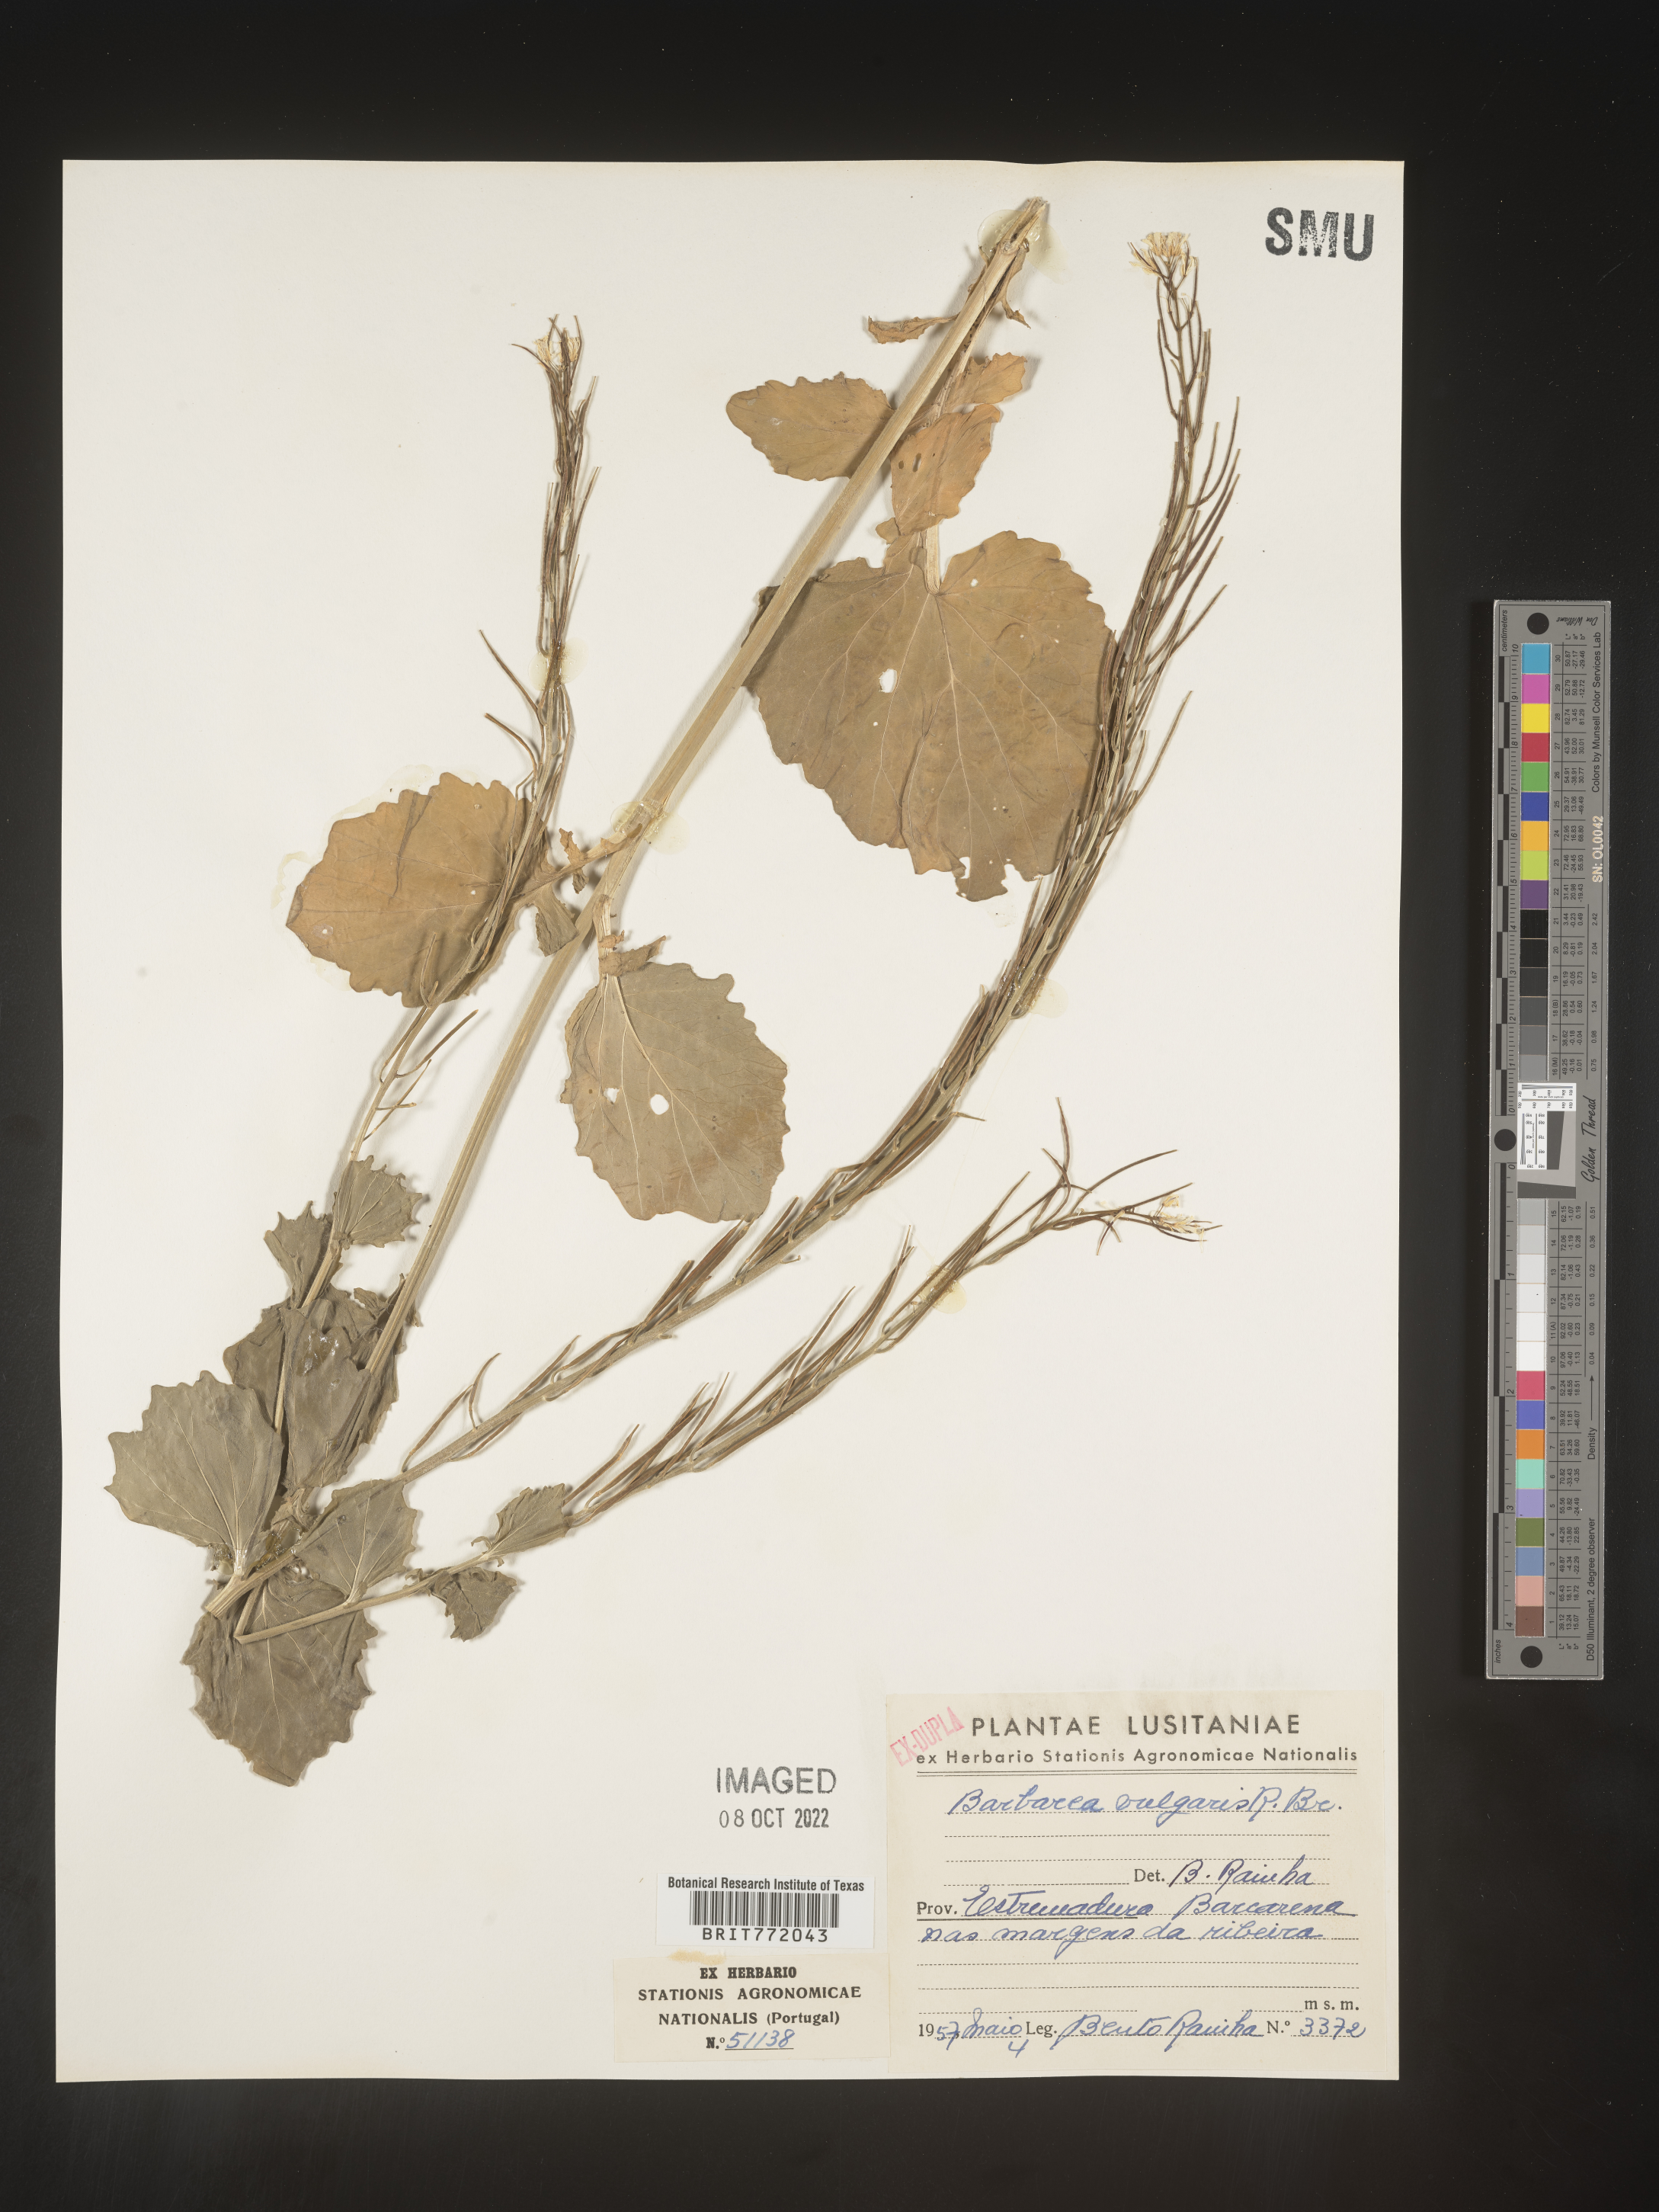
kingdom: Plantae
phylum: Tracheophyta
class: Magnoliopsida
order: Brassicales
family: Brassicaceae
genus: Barbarea
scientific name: Barbarea
